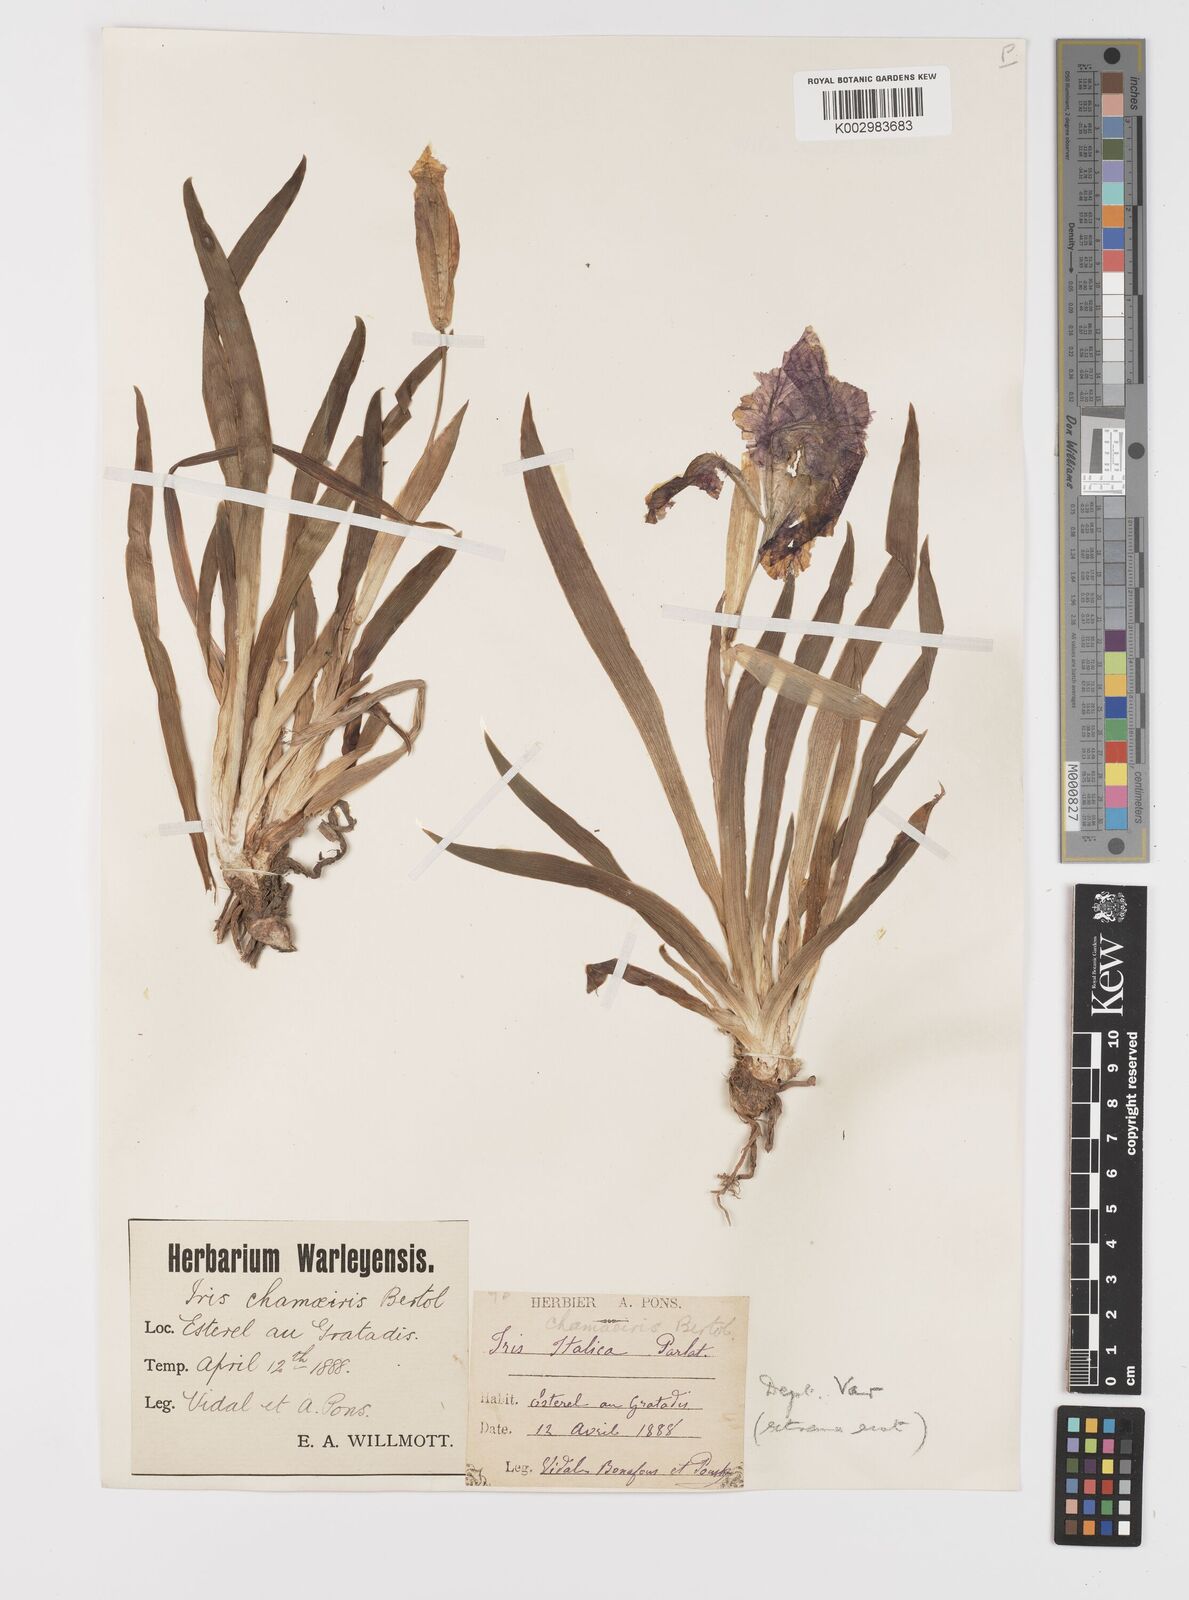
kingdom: Plantae
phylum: Tracheophyta
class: Liliopsida
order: Asparagales
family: Iridaceae
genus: Iris
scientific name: Iris lutescens
